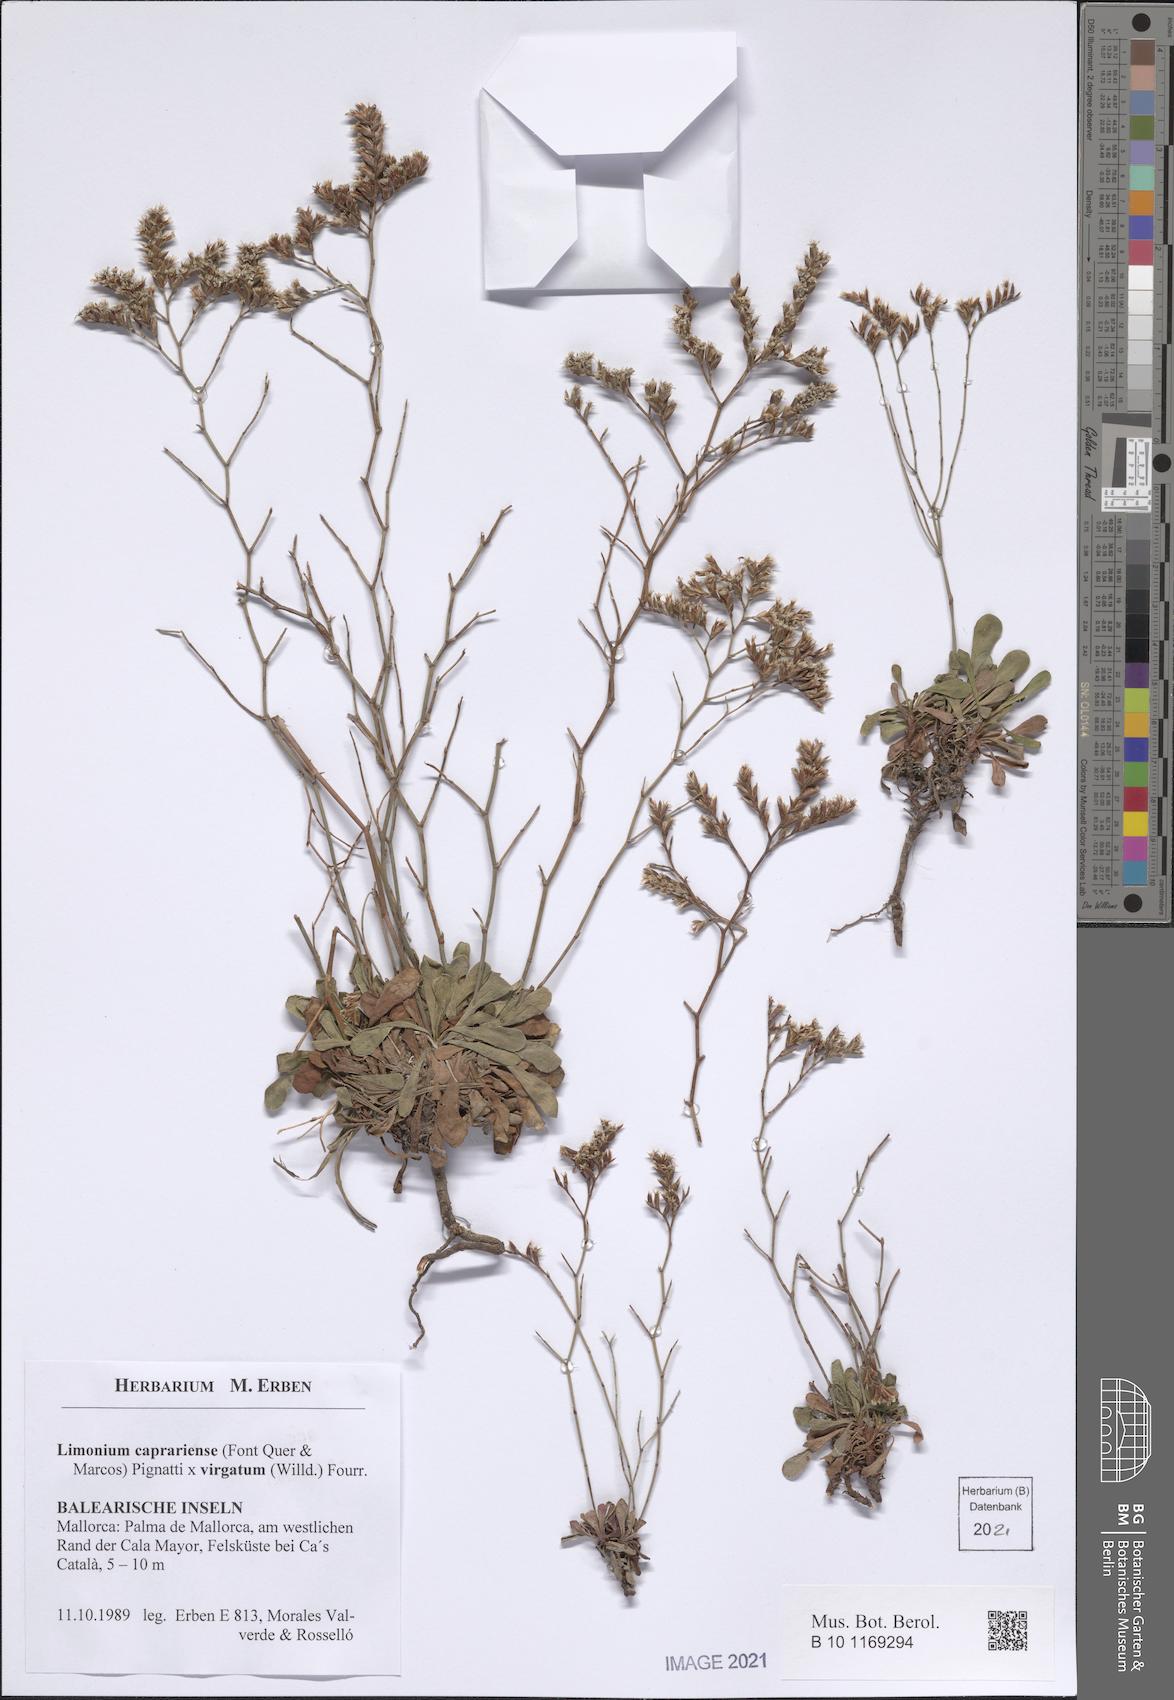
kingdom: Plantae
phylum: Tracheophyta
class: Magnoliopsida
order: Caryophyllales
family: Plumbaginaceae
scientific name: Plumbaginaceae
